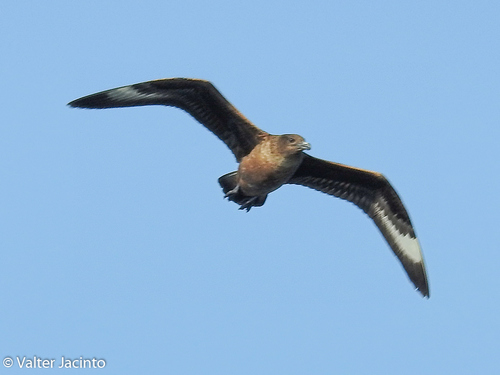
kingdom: Animalia
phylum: Chordata
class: Aves
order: Charadriiformes
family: Stercorariidae
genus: Stercorarius
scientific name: Stercorarius skua
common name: Great skua
